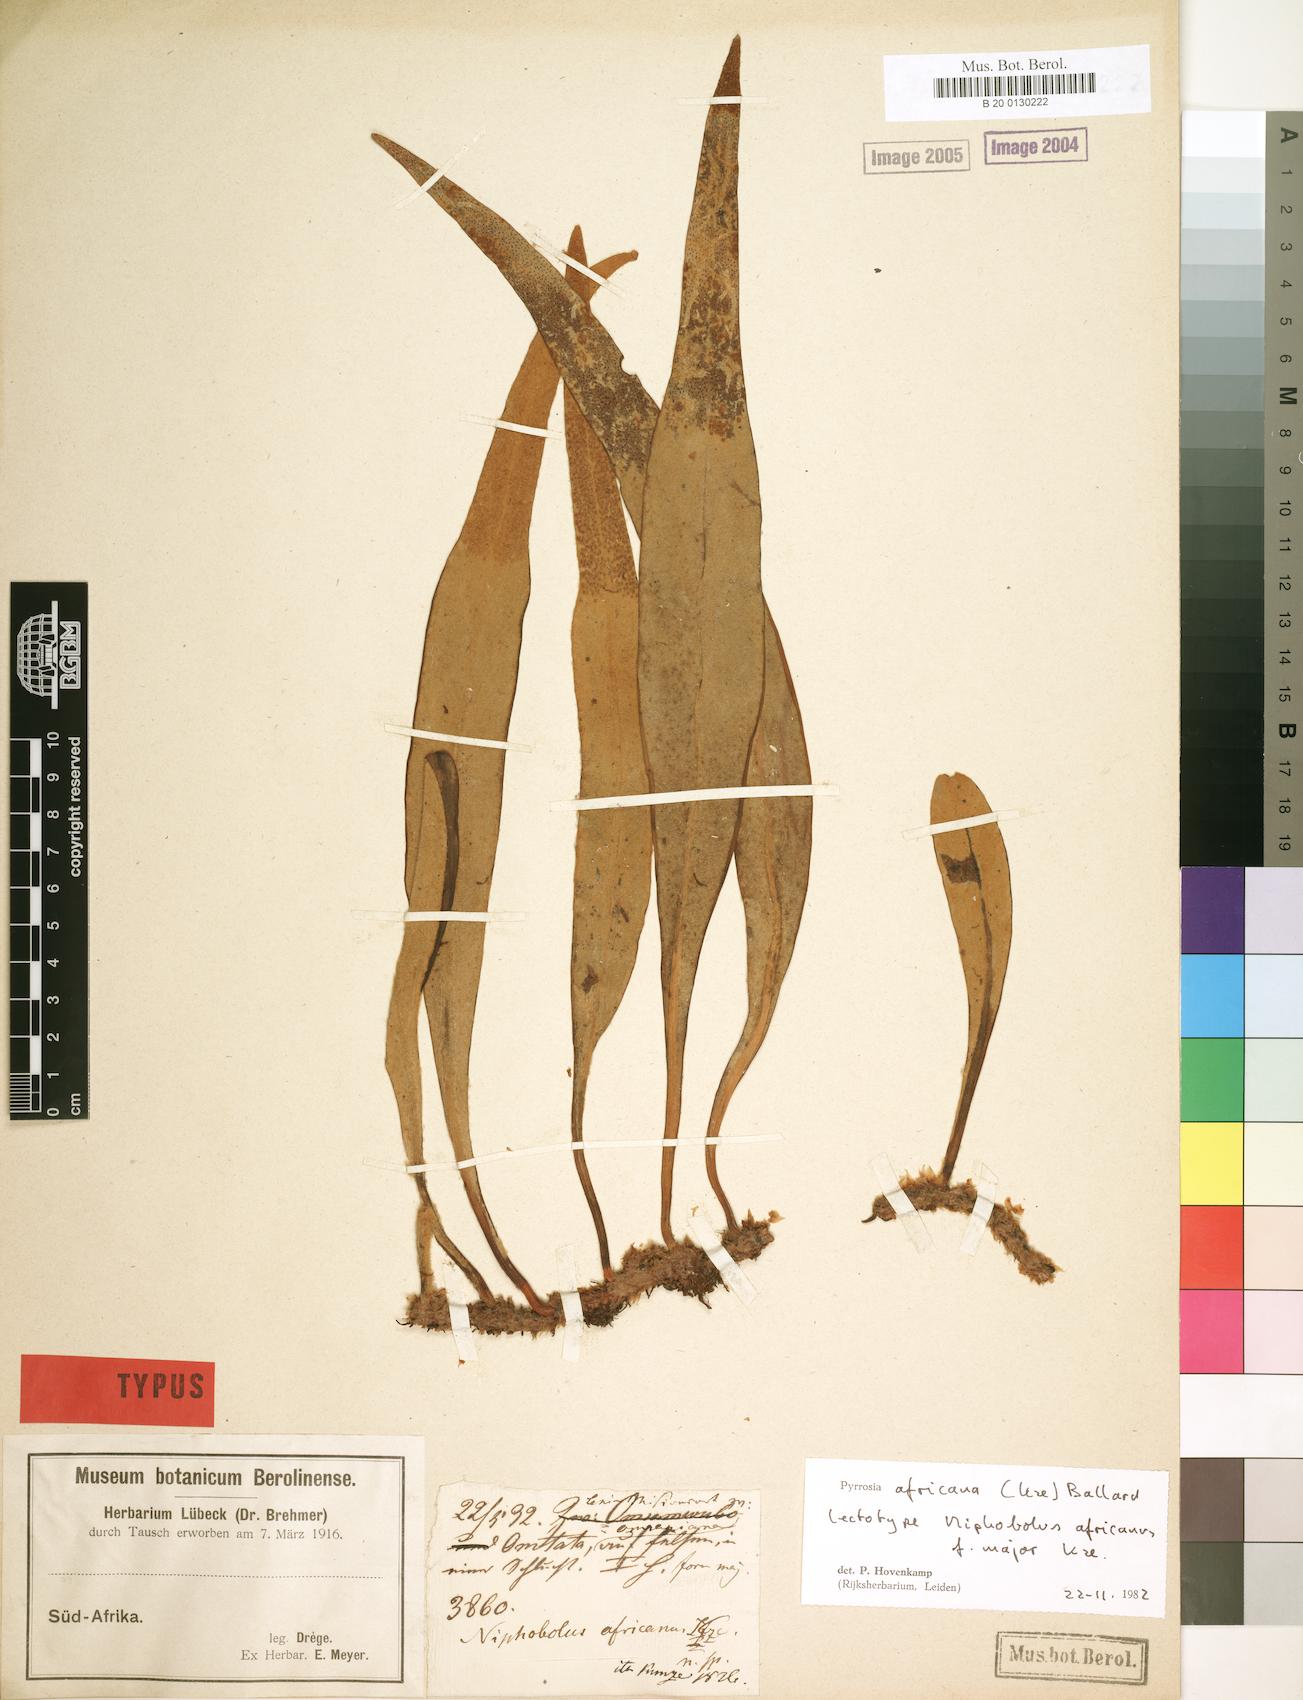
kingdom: Plantae
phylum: Tracheophyta
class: Polypodiopsida
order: Polypodiales
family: Polypodiaceae
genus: Hovenkampia
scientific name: Hovenkampia africana
